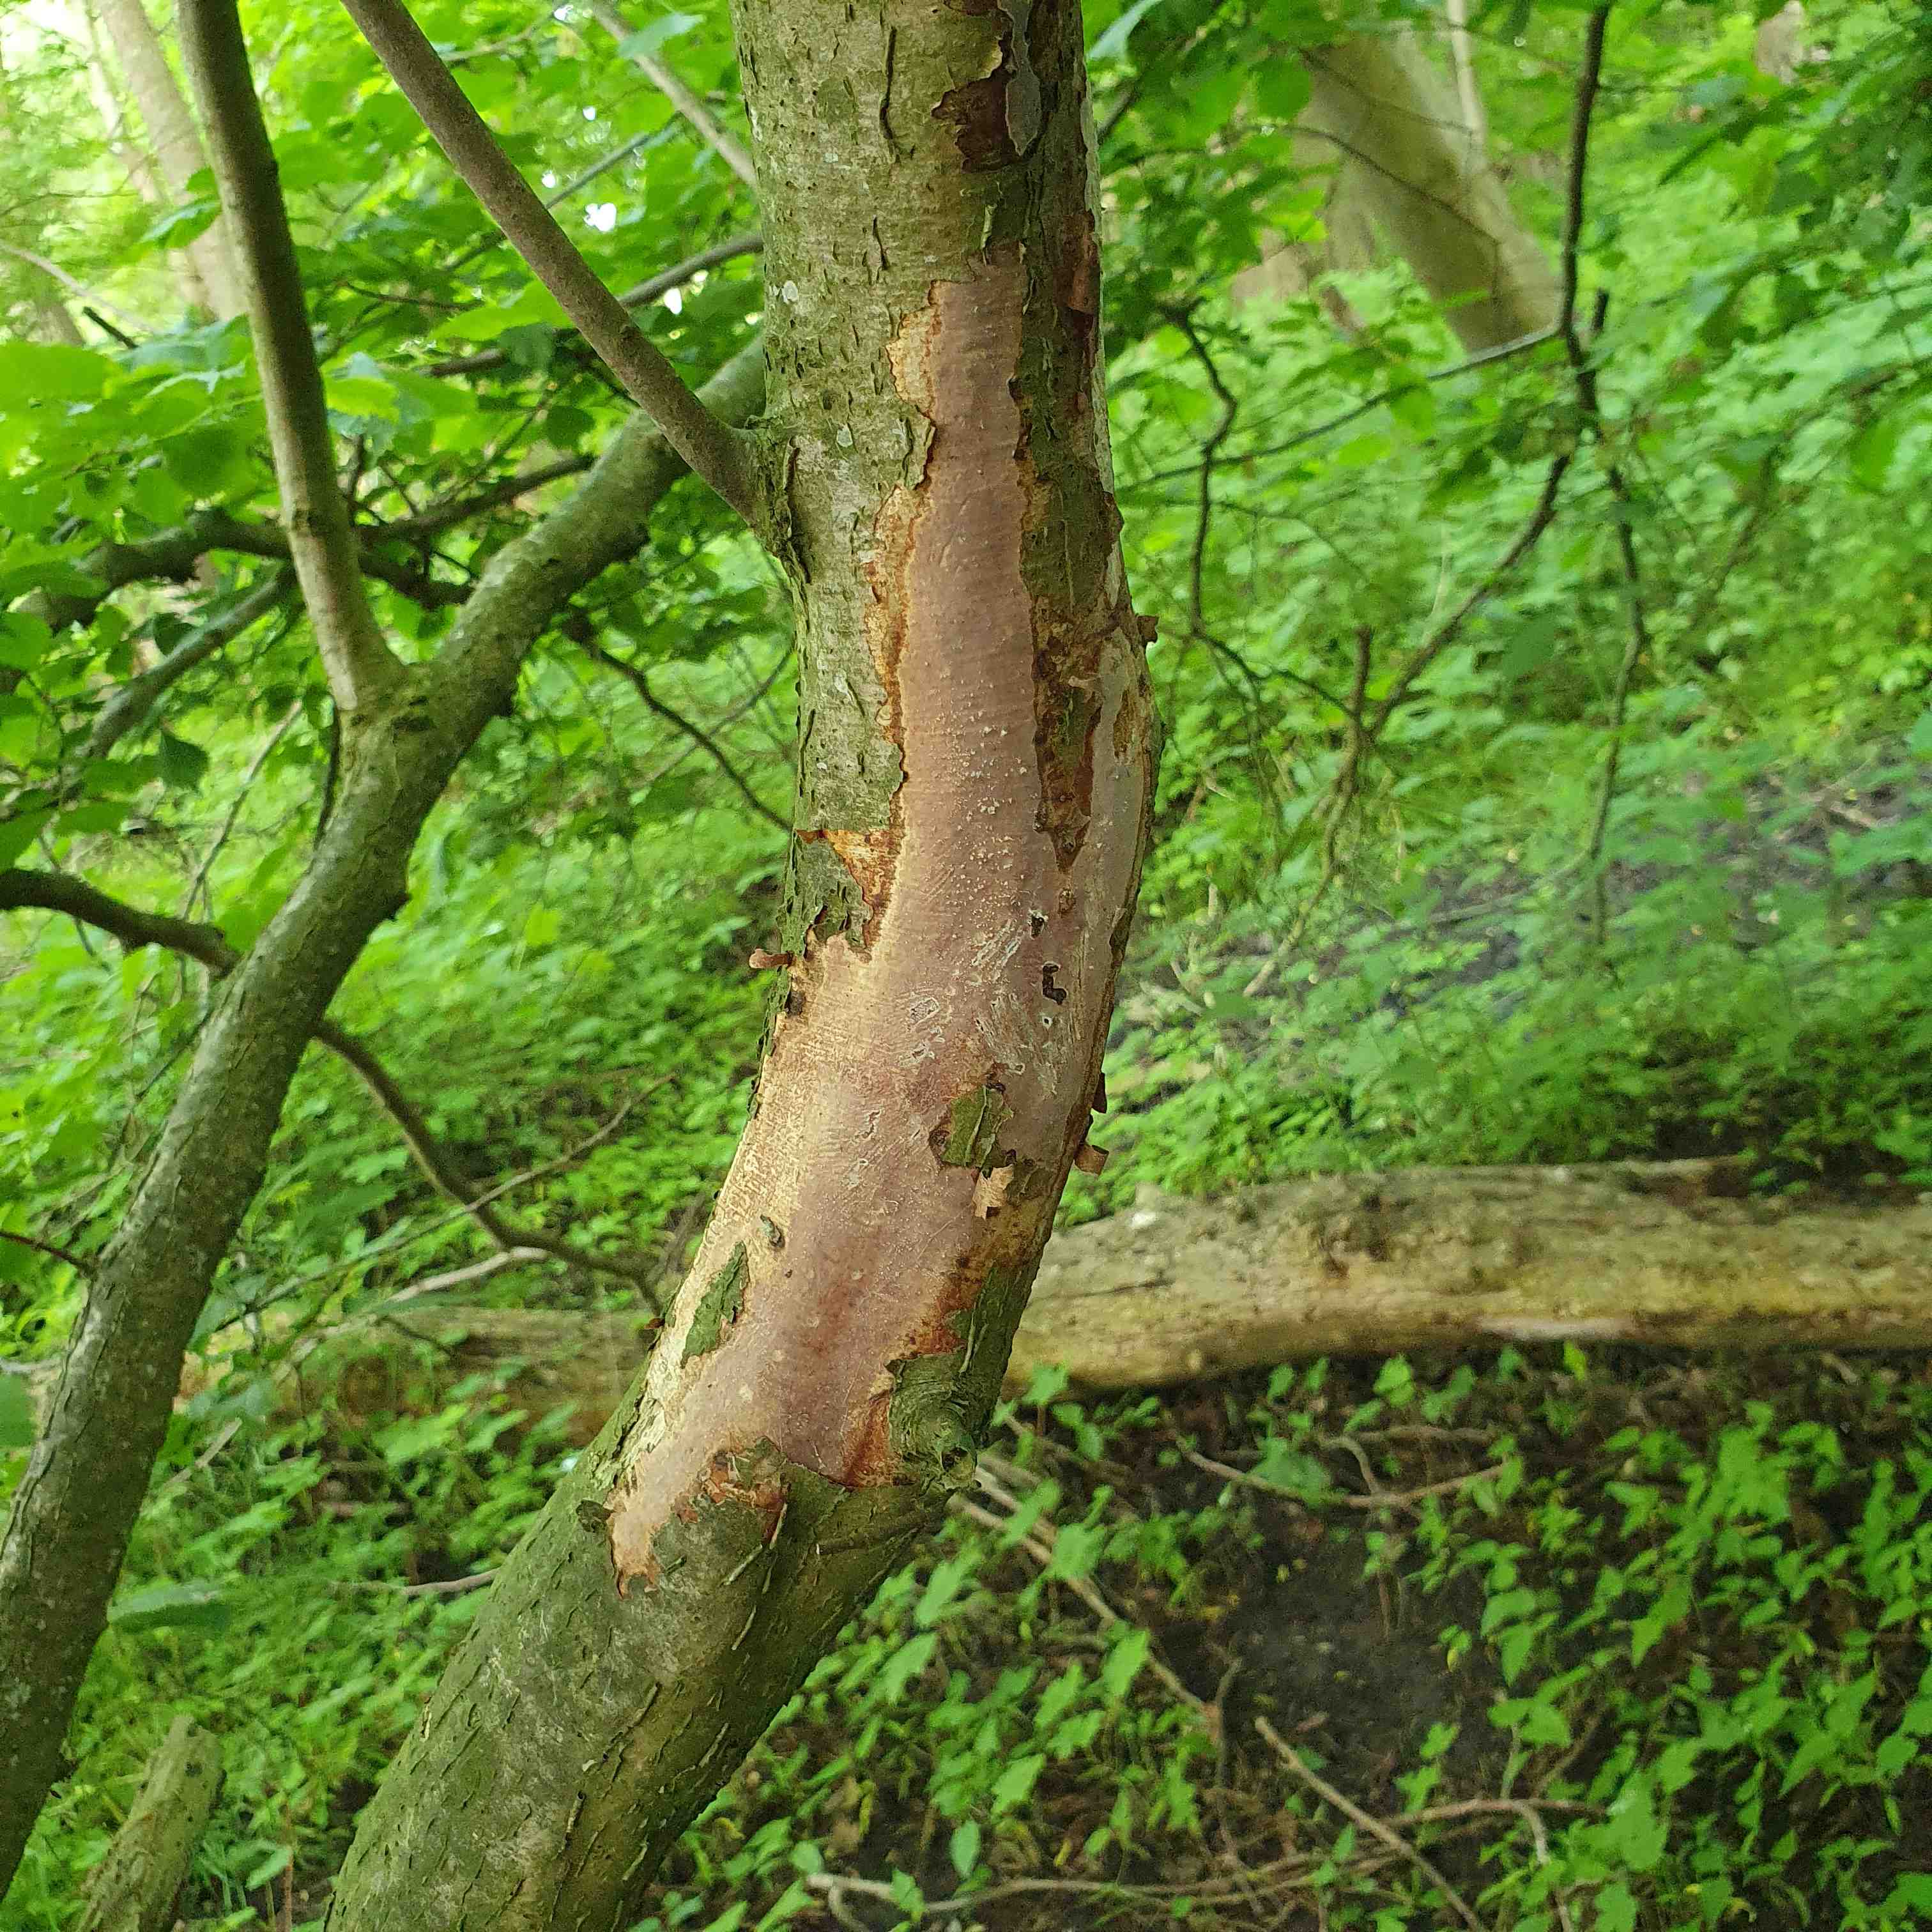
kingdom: Fungi
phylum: Basidiomycota
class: Agaricomycetes
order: Corticiales
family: Vuilleminiaceae
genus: Vuilleminia
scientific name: Vuilleminia coryli
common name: hassel-barksprænger
